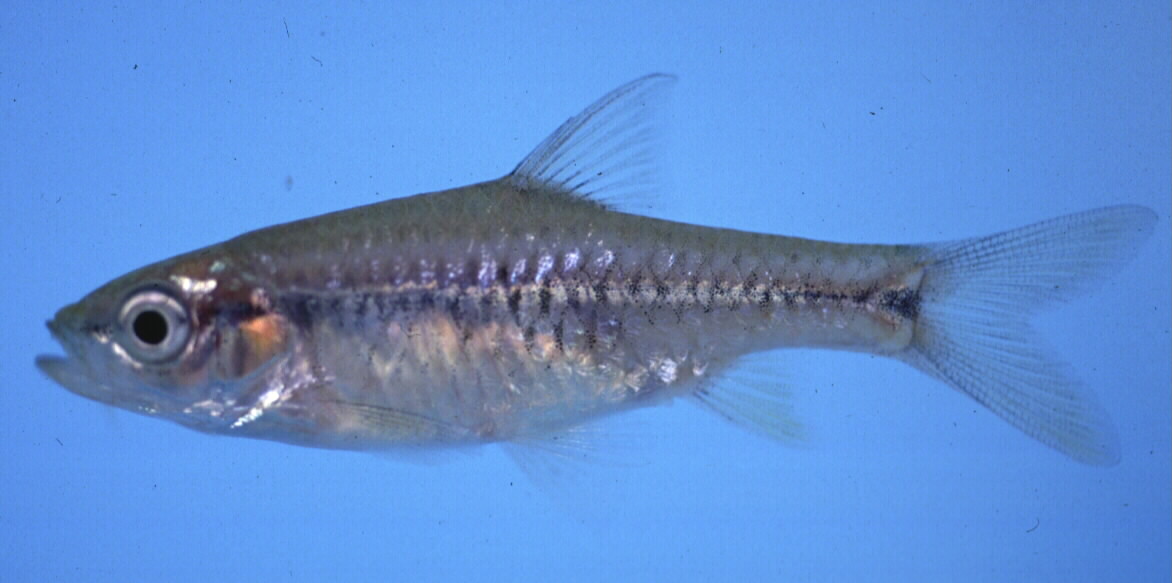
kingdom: Animalia
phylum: Chordata
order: Cypriniformes
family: Cyprinidae
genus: Enteromius
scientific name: Enteromius kerstenii
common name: Redspot barb
